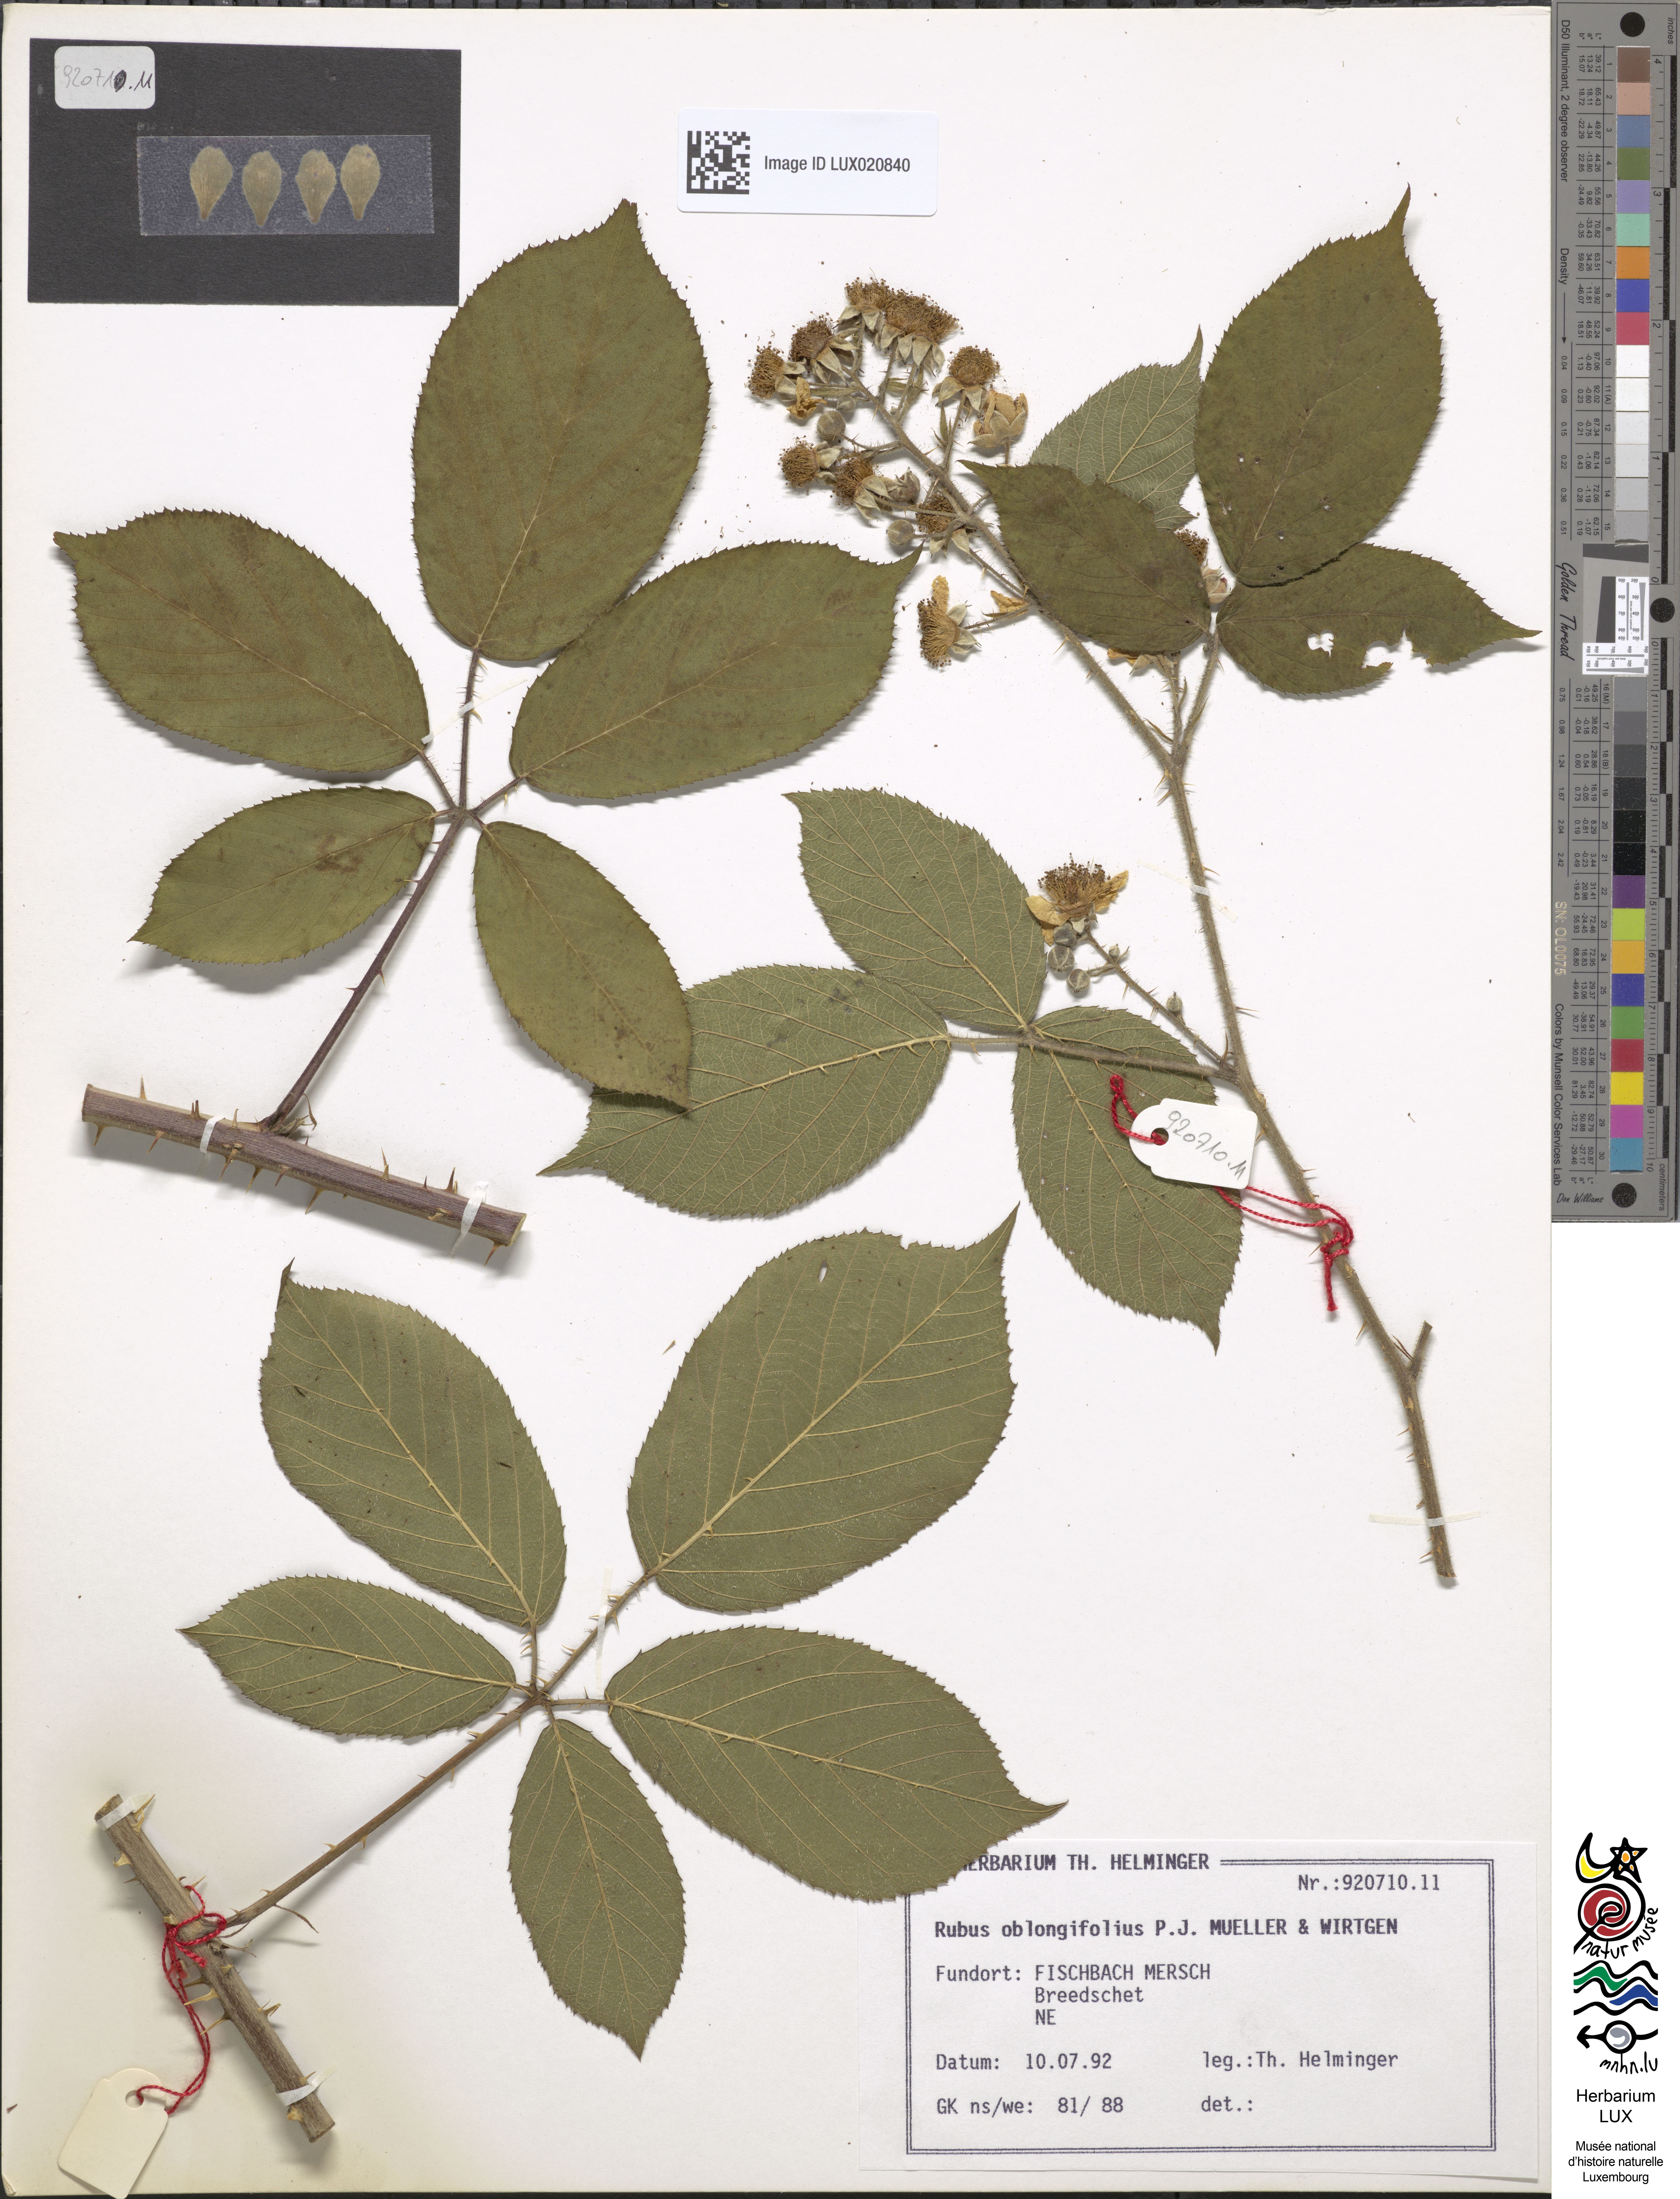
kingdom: Plantae
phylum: Tracheophyta
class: Magnoliopsida
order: Rosales
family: Rosaceae
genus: Rubus
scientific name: Rubus oblongifolius
